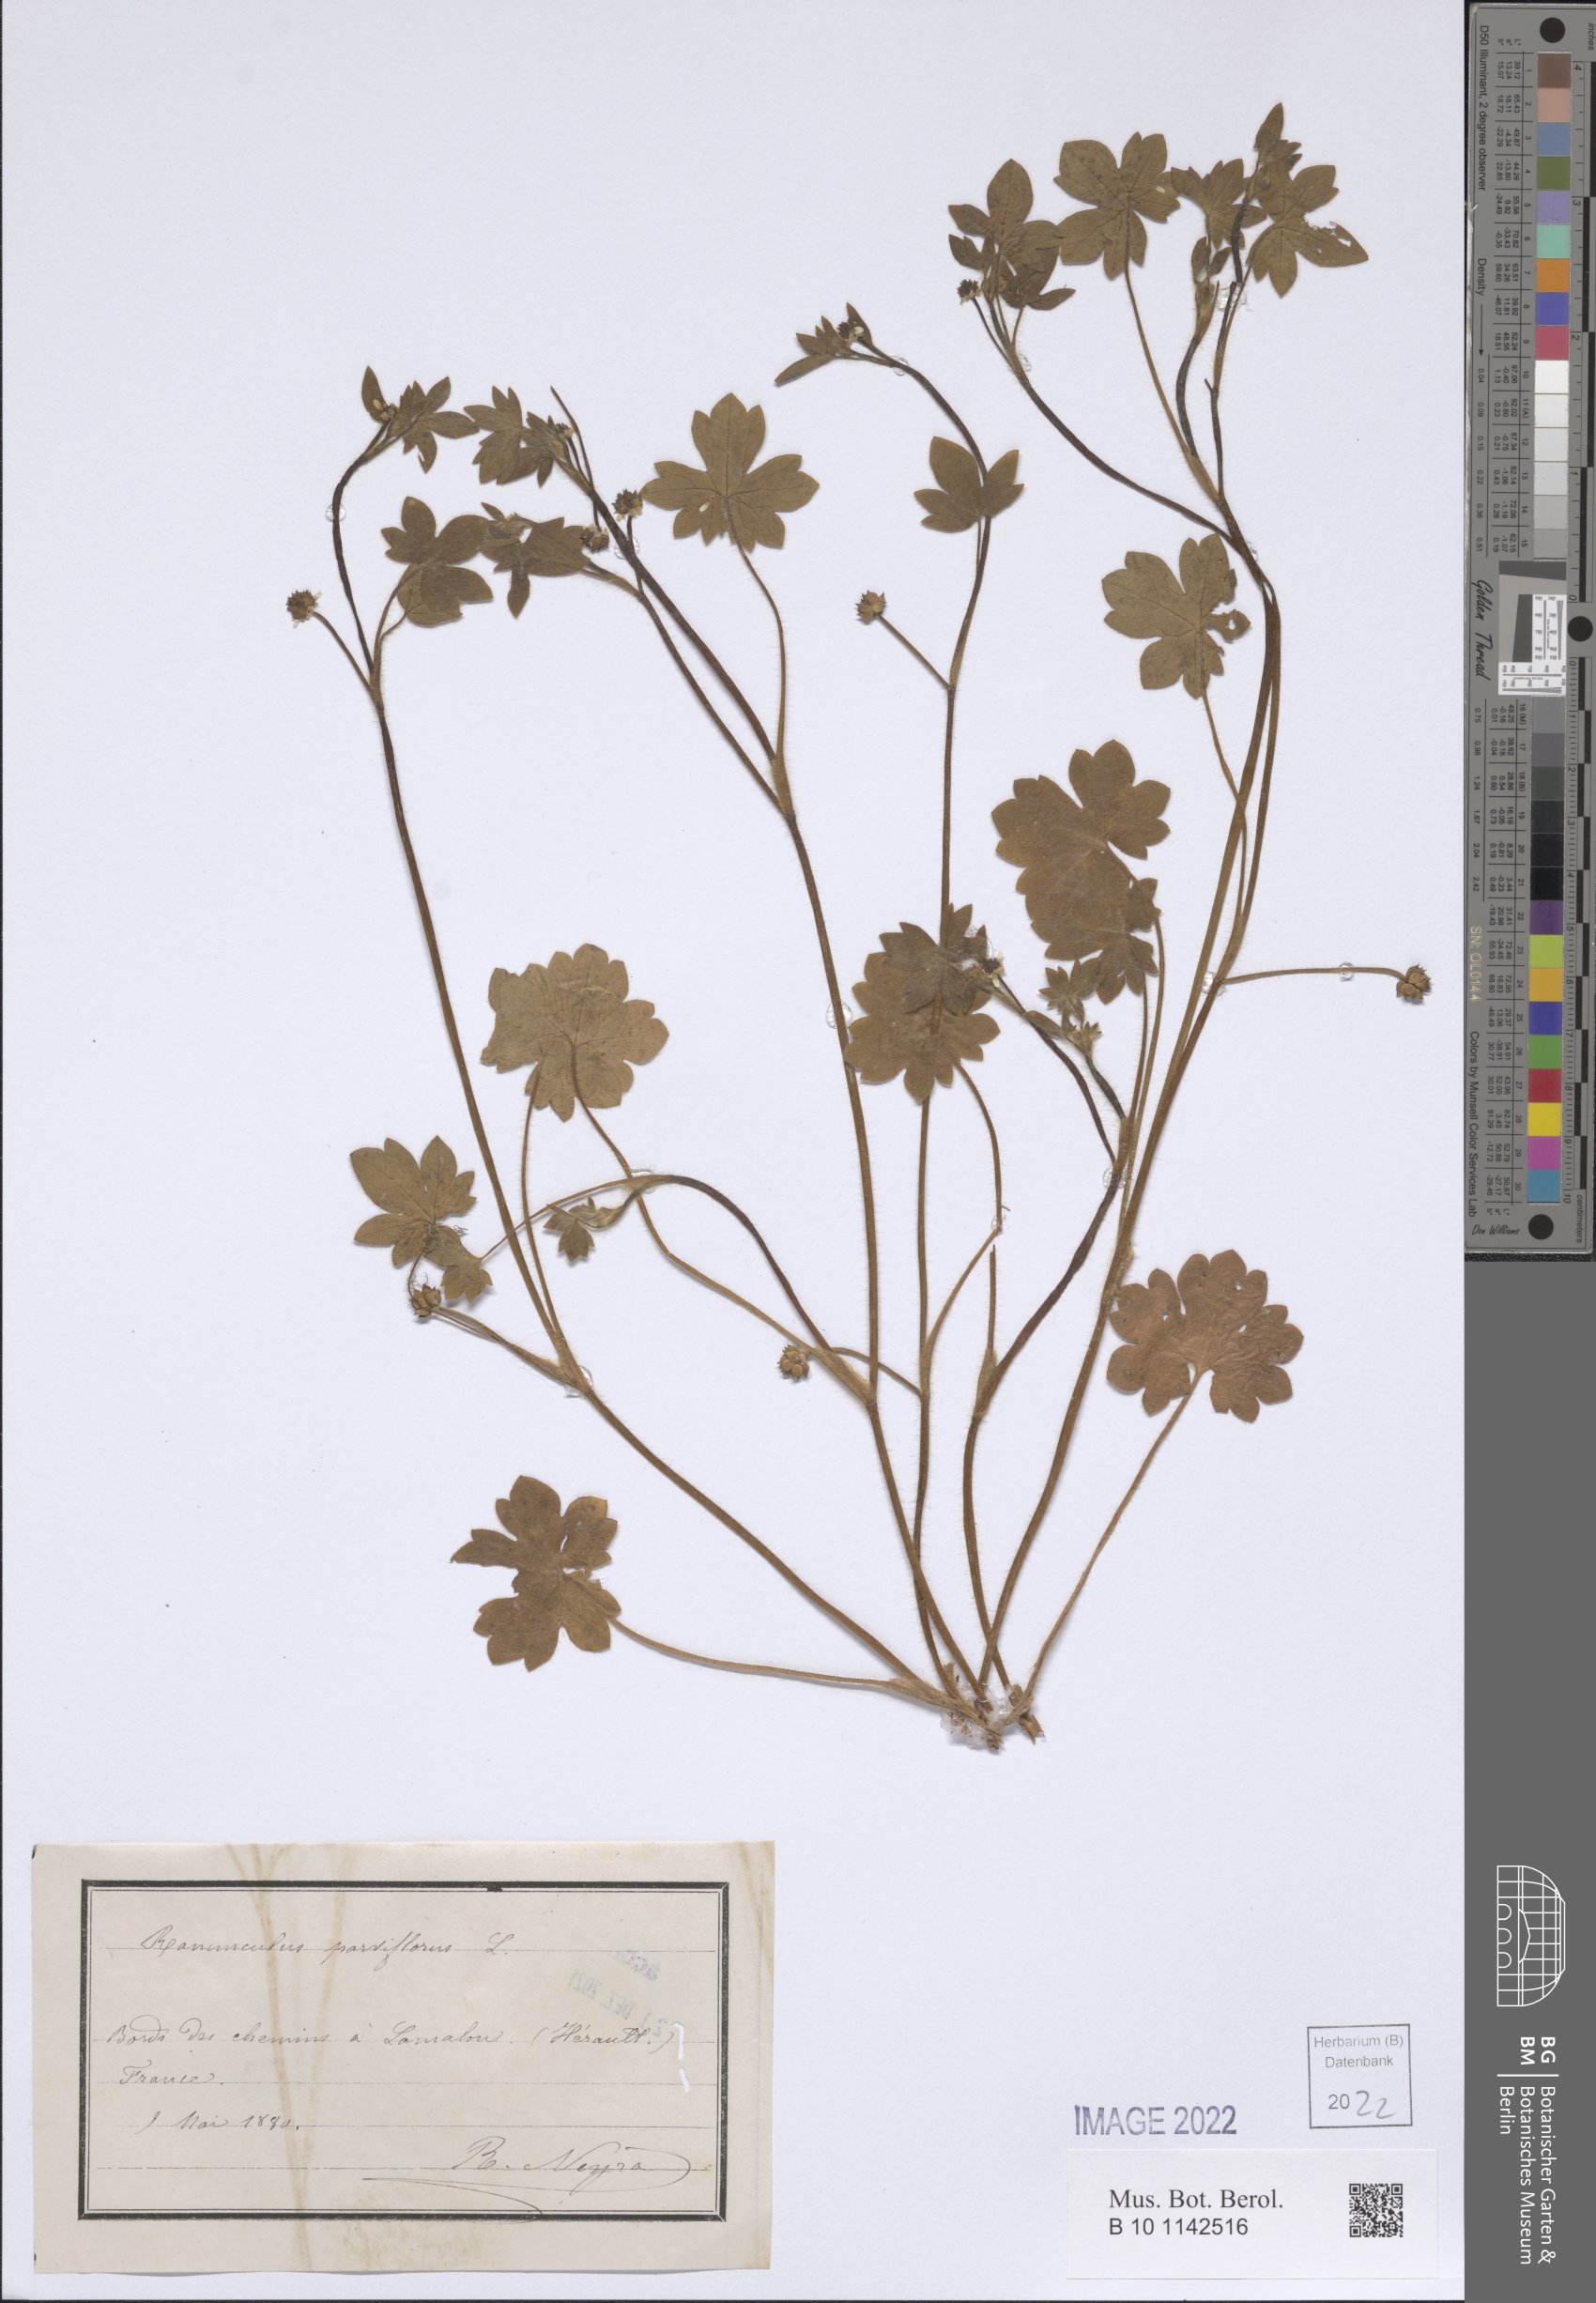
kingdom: Plantae
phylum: Tracheophyta
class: Magnoliopsida
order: Ranunculales
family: Ranunculaceae
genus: Ranunculus
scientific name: Ranunculus parviflorus
